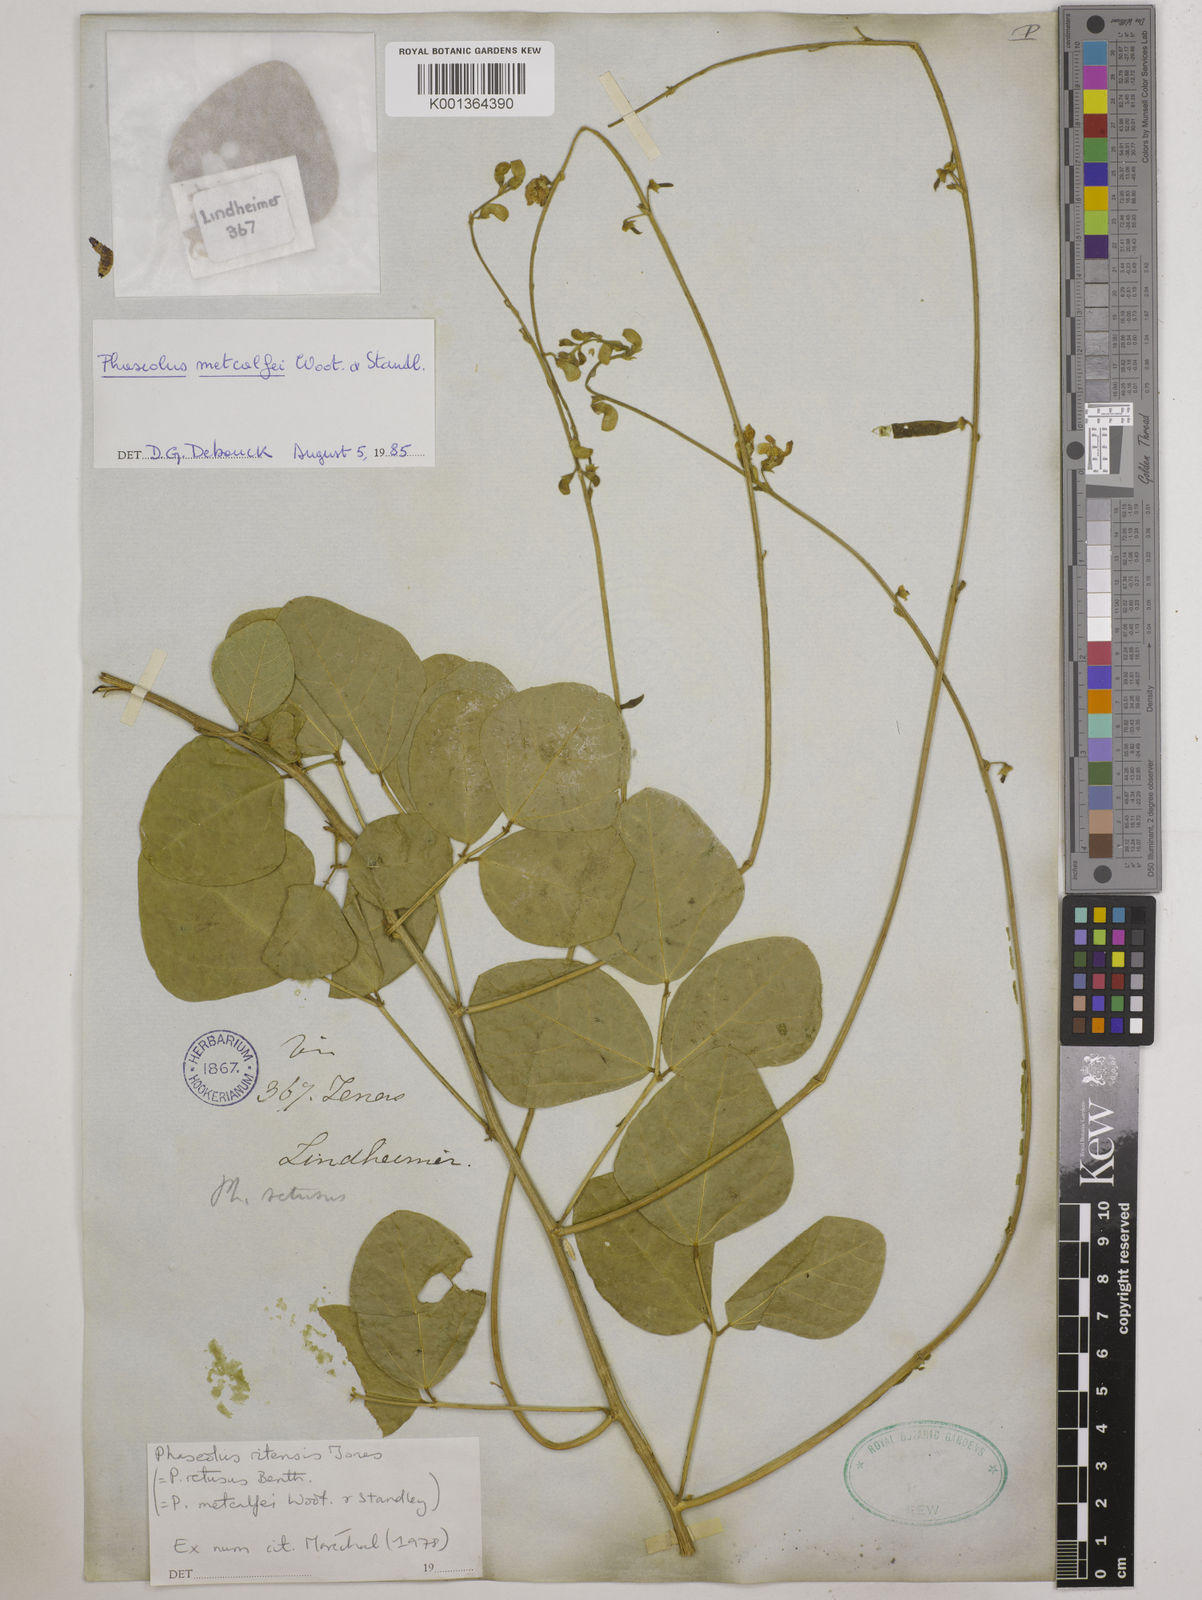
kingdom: Plantae
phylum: Tracheophyta
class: Magnoliopsida
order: Fabales
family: Fabaceae
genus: Phaseolus
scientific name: Phaseolus maculatus
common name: Metcalfe bean
